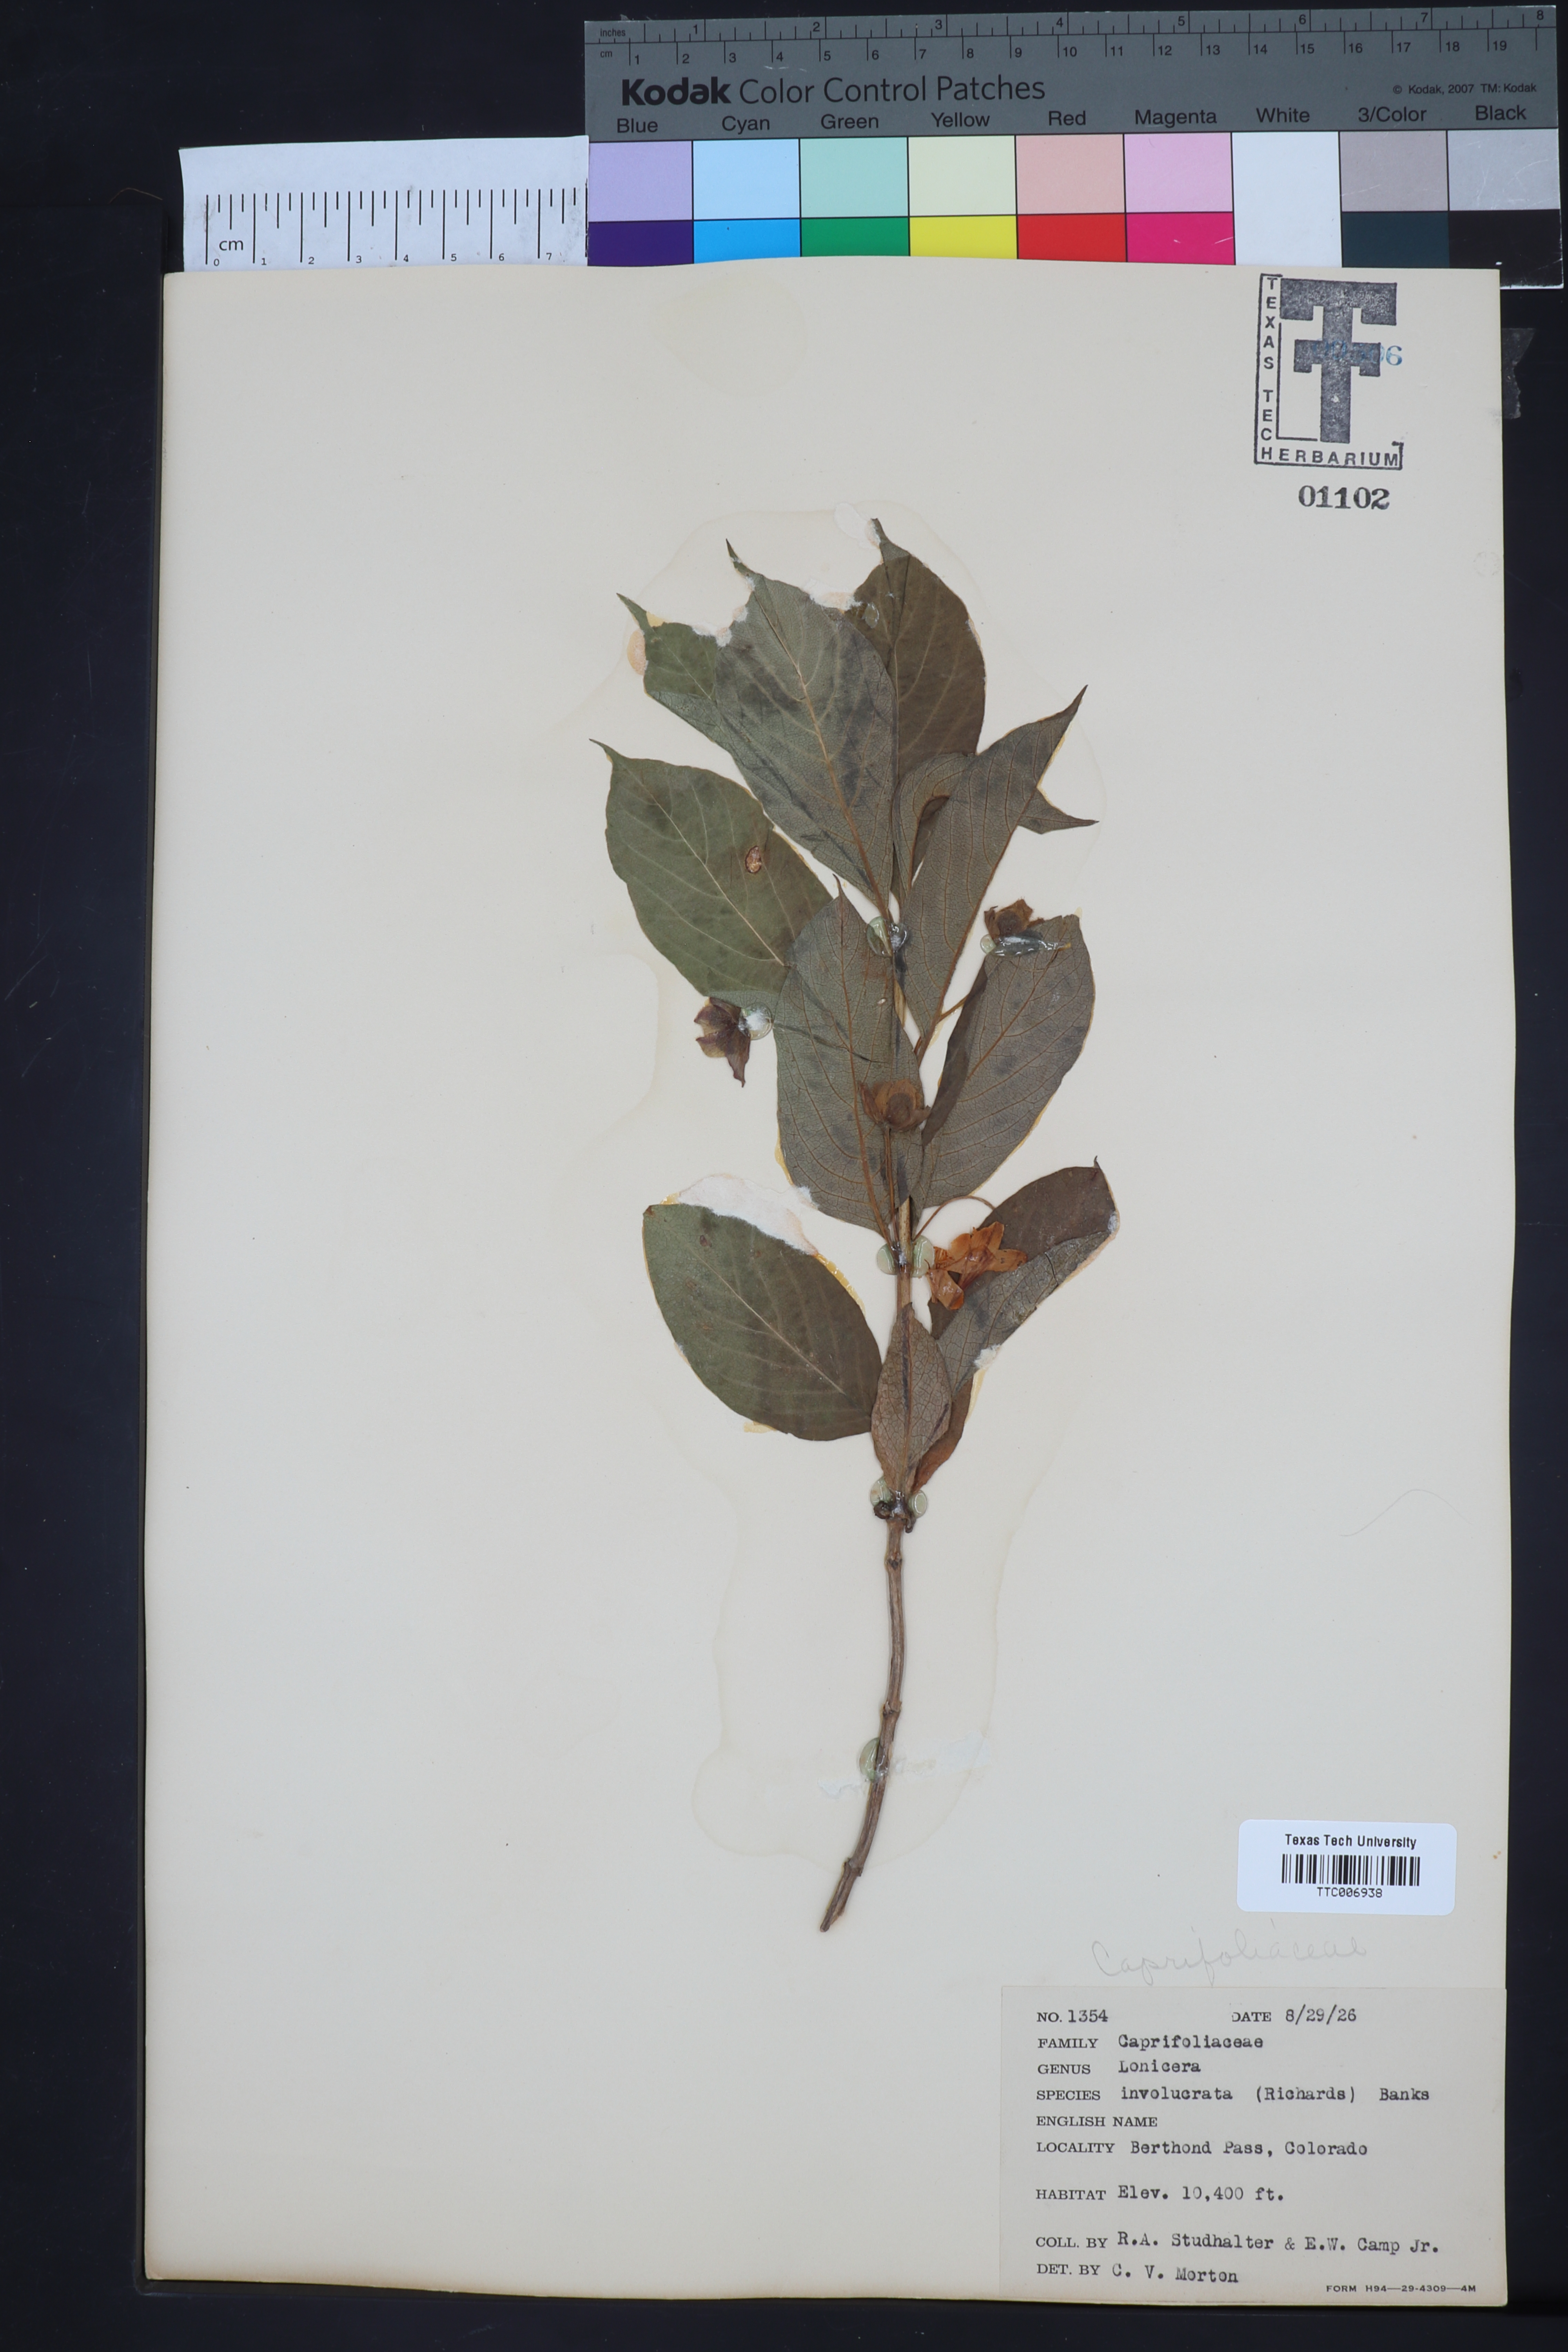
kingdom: Plantae
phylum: Tracheophyta
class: Magnoliopsida
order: Dipsacales
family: Caprifoliaceae
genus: Lonicera
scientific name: Lonicera involucrata
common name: Californian honeysuckle
